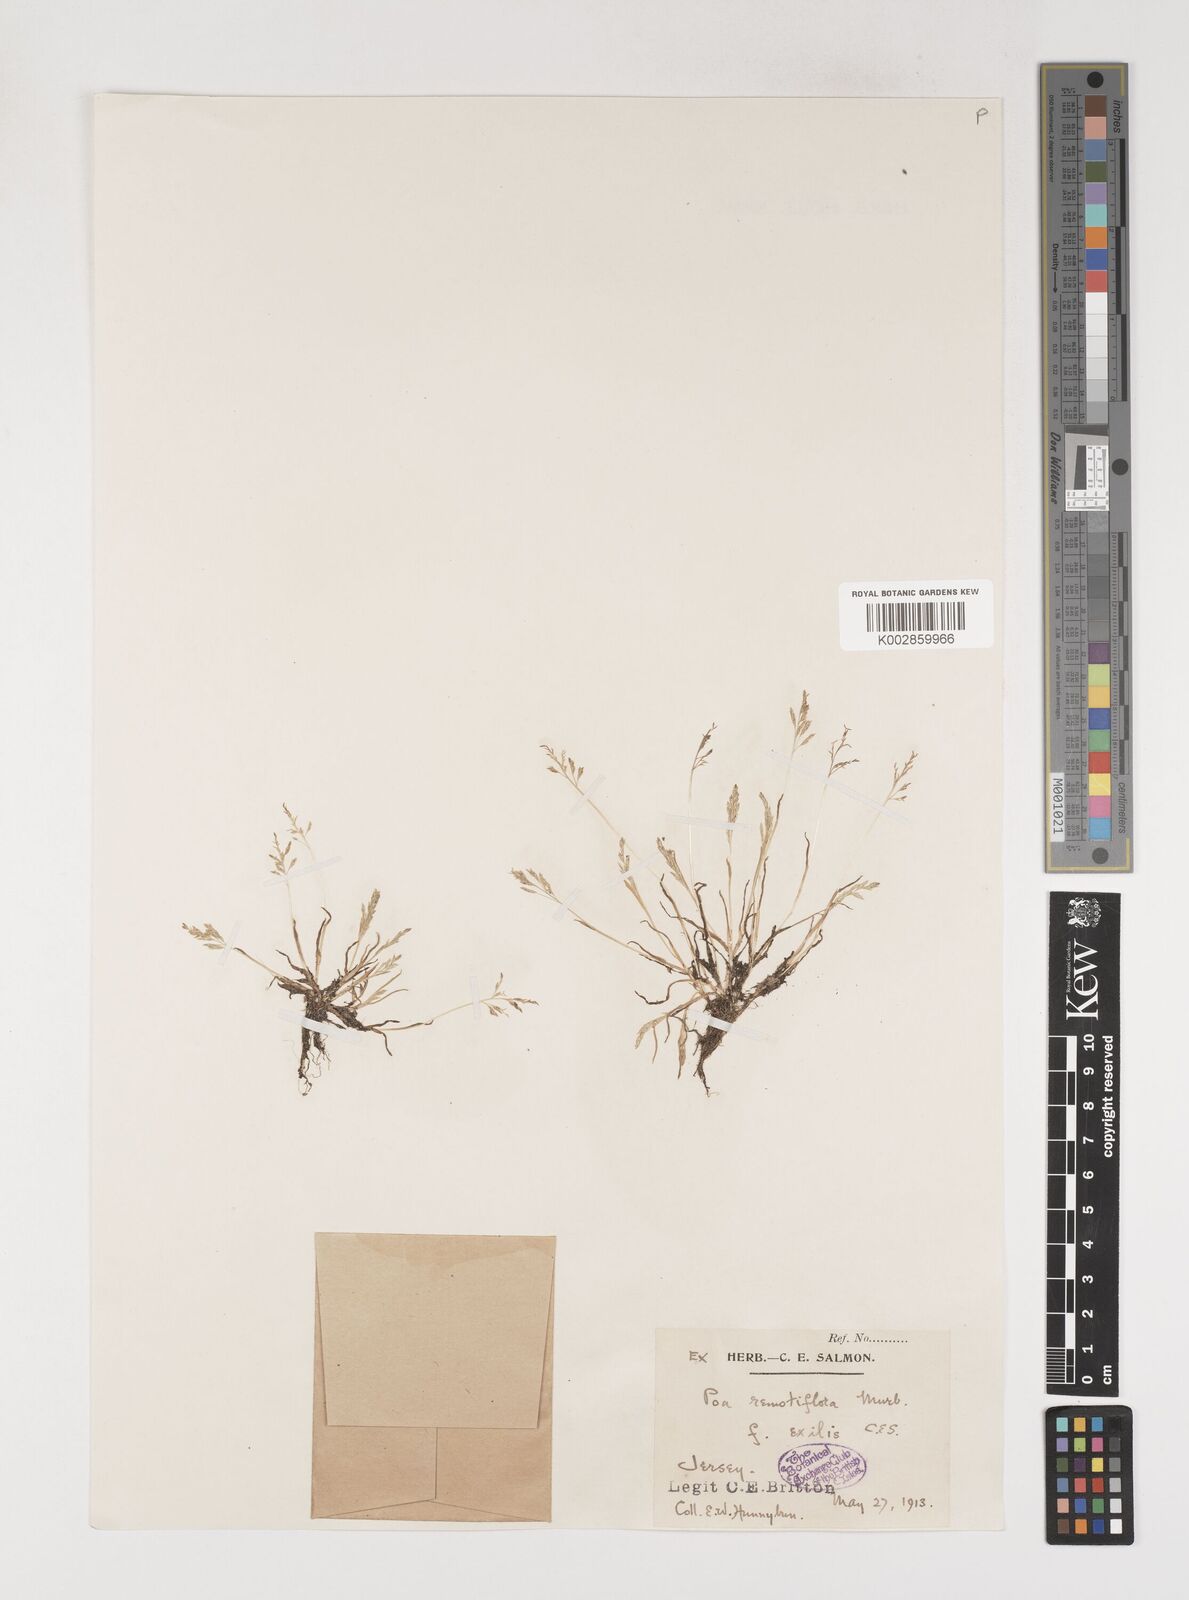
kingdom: Plantae
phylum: Tracheophyta
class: Liliopsida
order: Poales
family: Poaceae
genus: Poa
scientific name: Poa infirma
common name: Weak bluegrass
